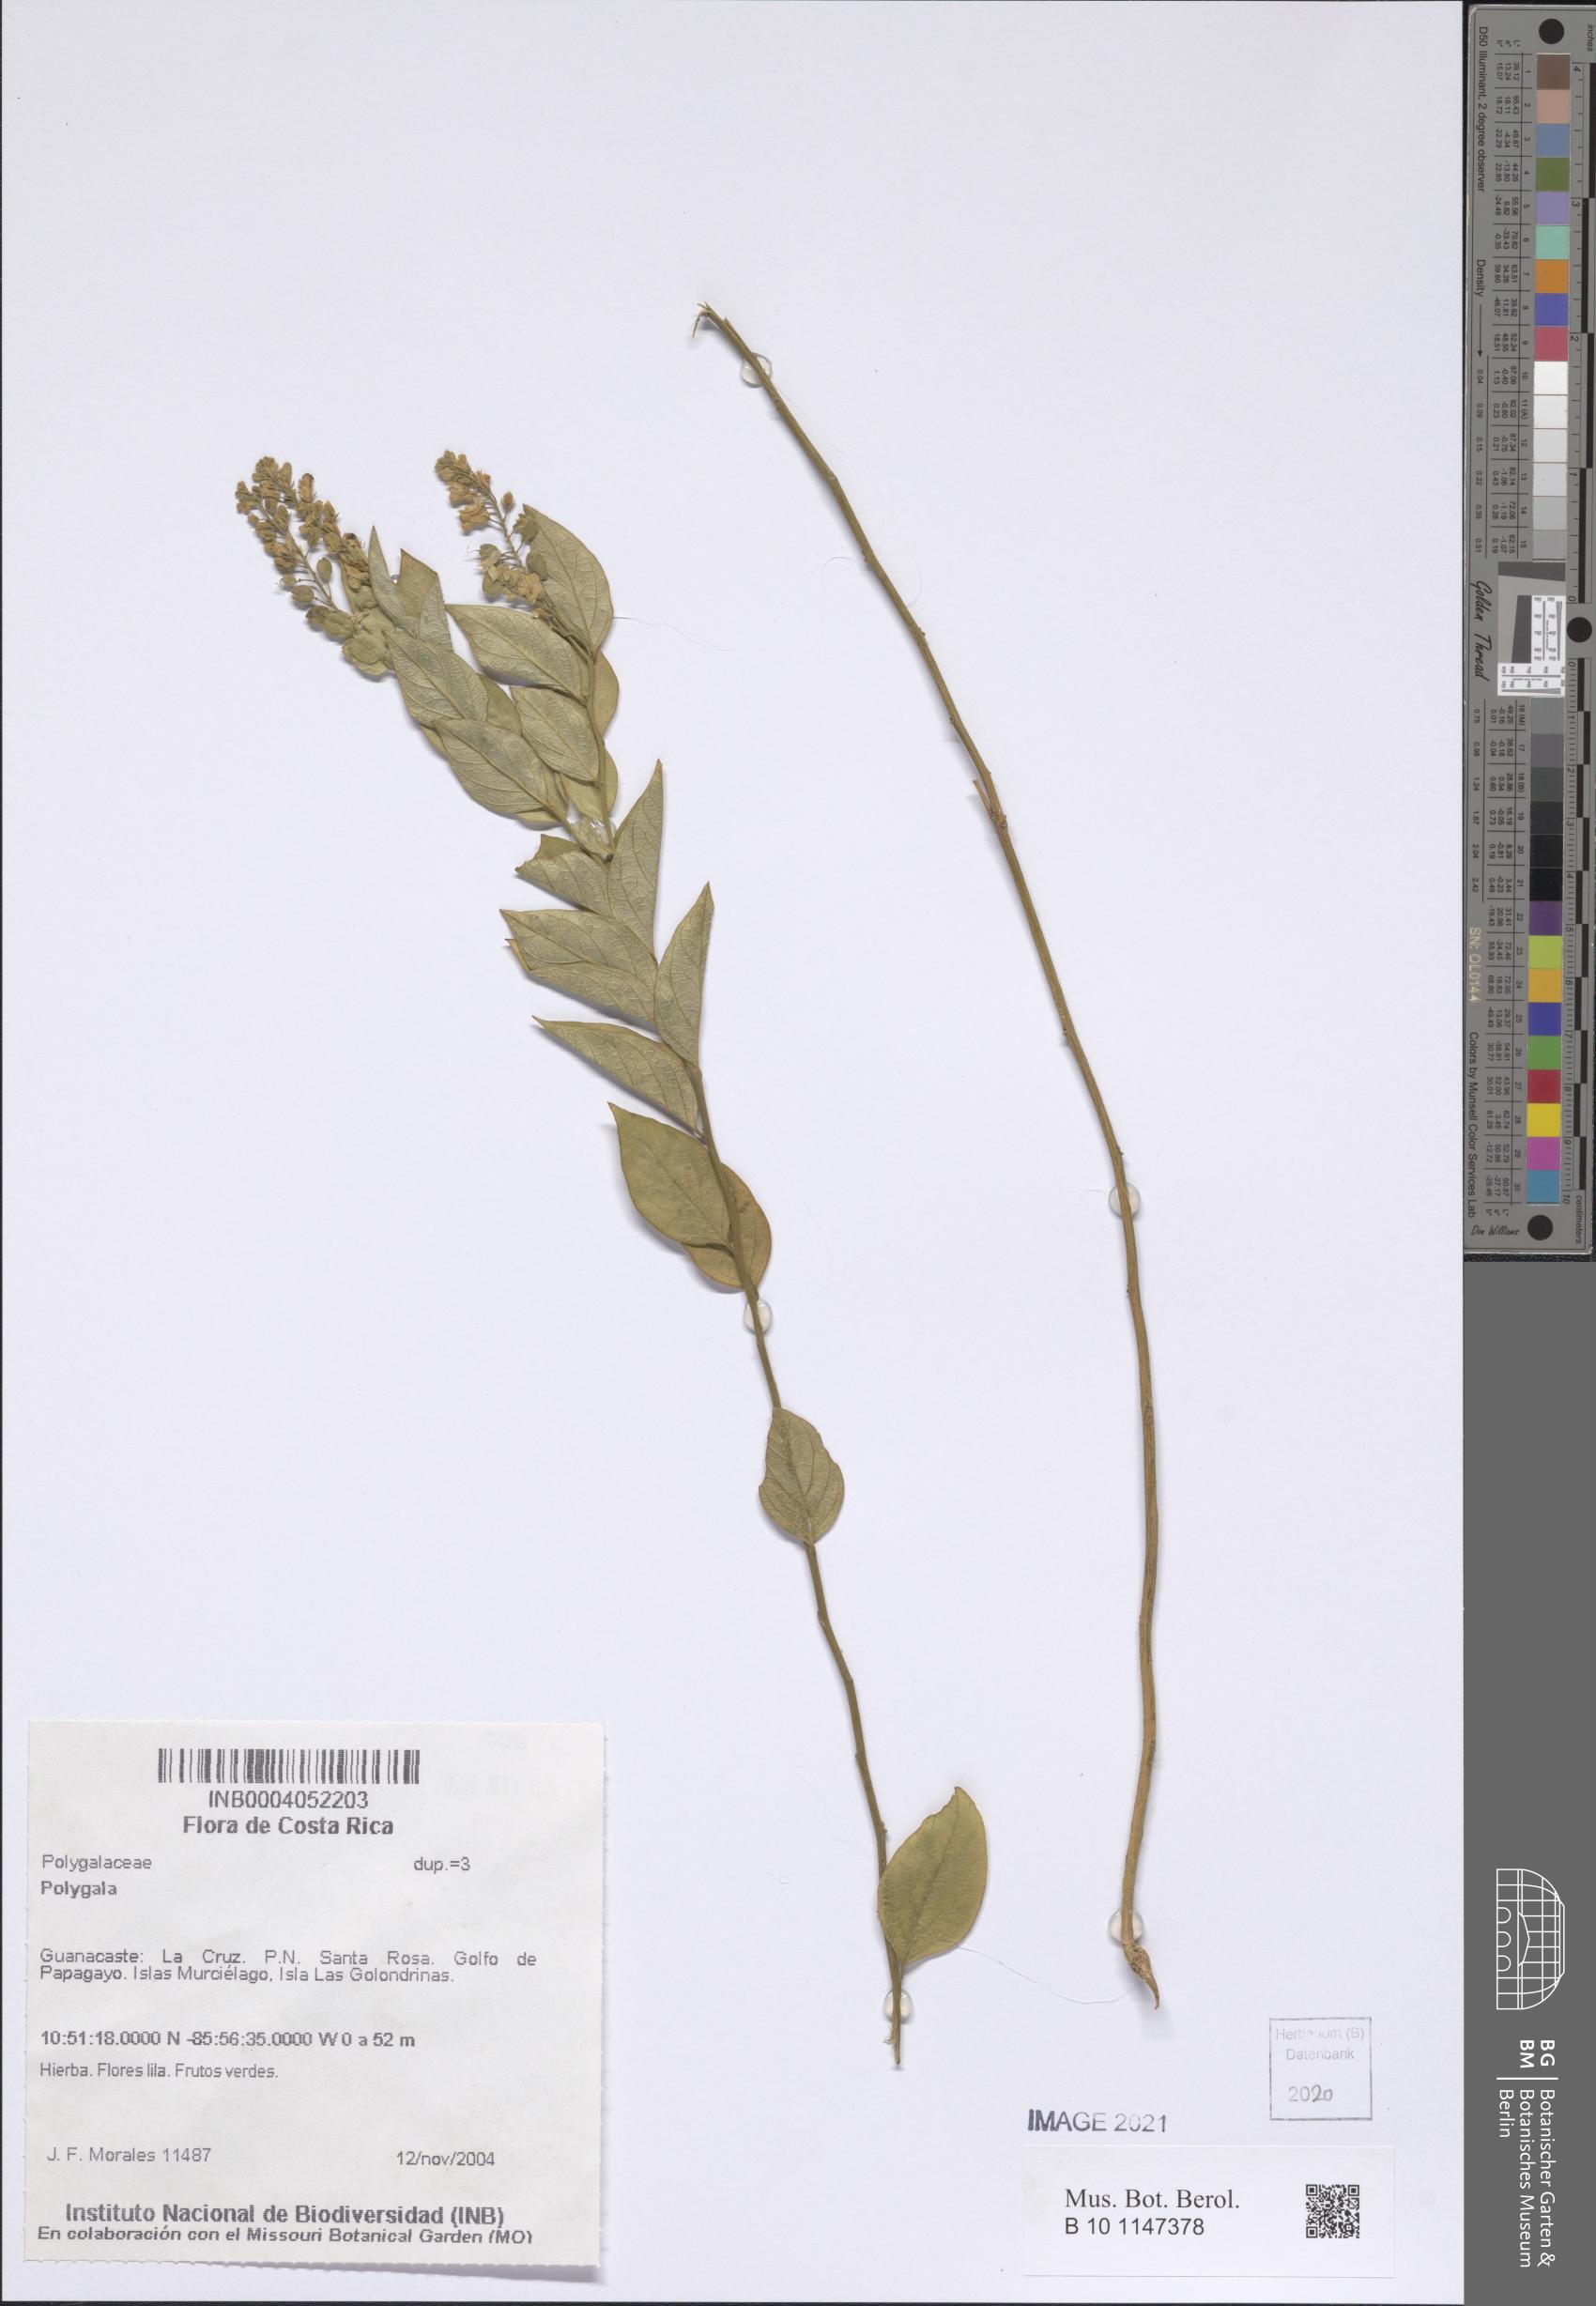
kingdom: Plantae
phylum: Tracheophyta
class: Magnoliopsida
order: Fabales
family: Polygalaceae
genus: Polygala
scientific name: Polygala
